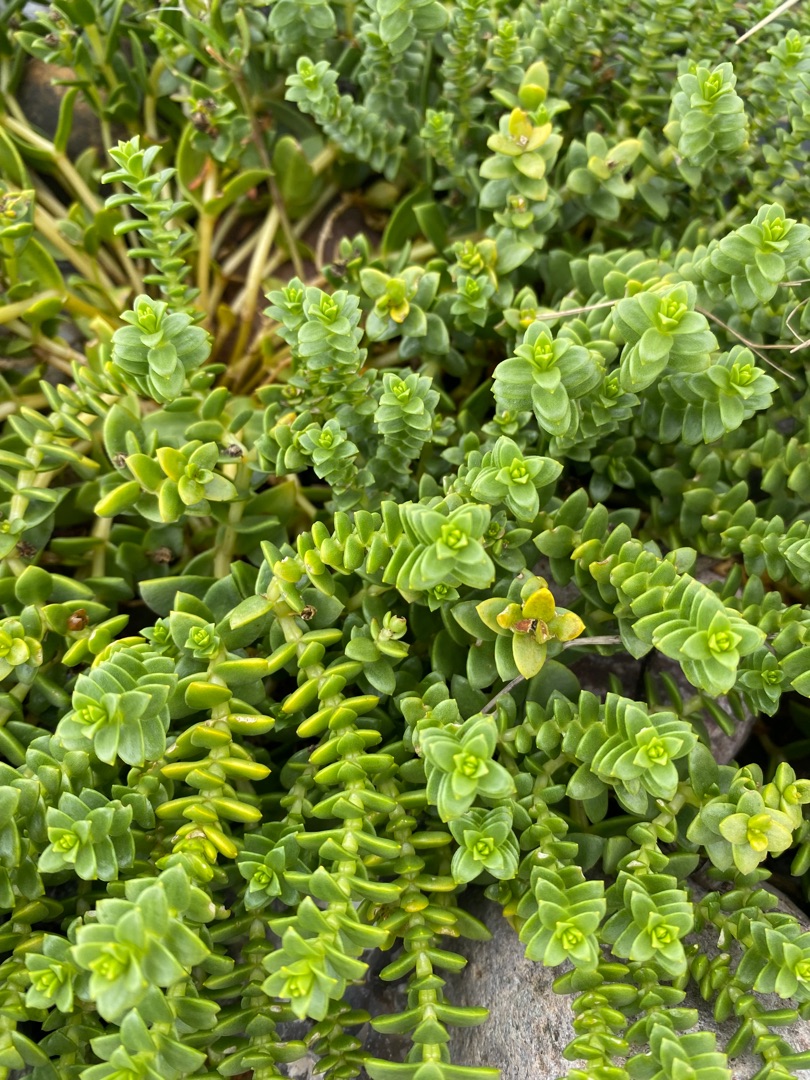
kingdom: Plantae
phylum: Tracheophyta
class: Magnoliopsida
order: Caryophyllales
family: Caryophyllaceae
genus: Honckenya
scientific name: Honckenya peploides
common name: Strandarve
